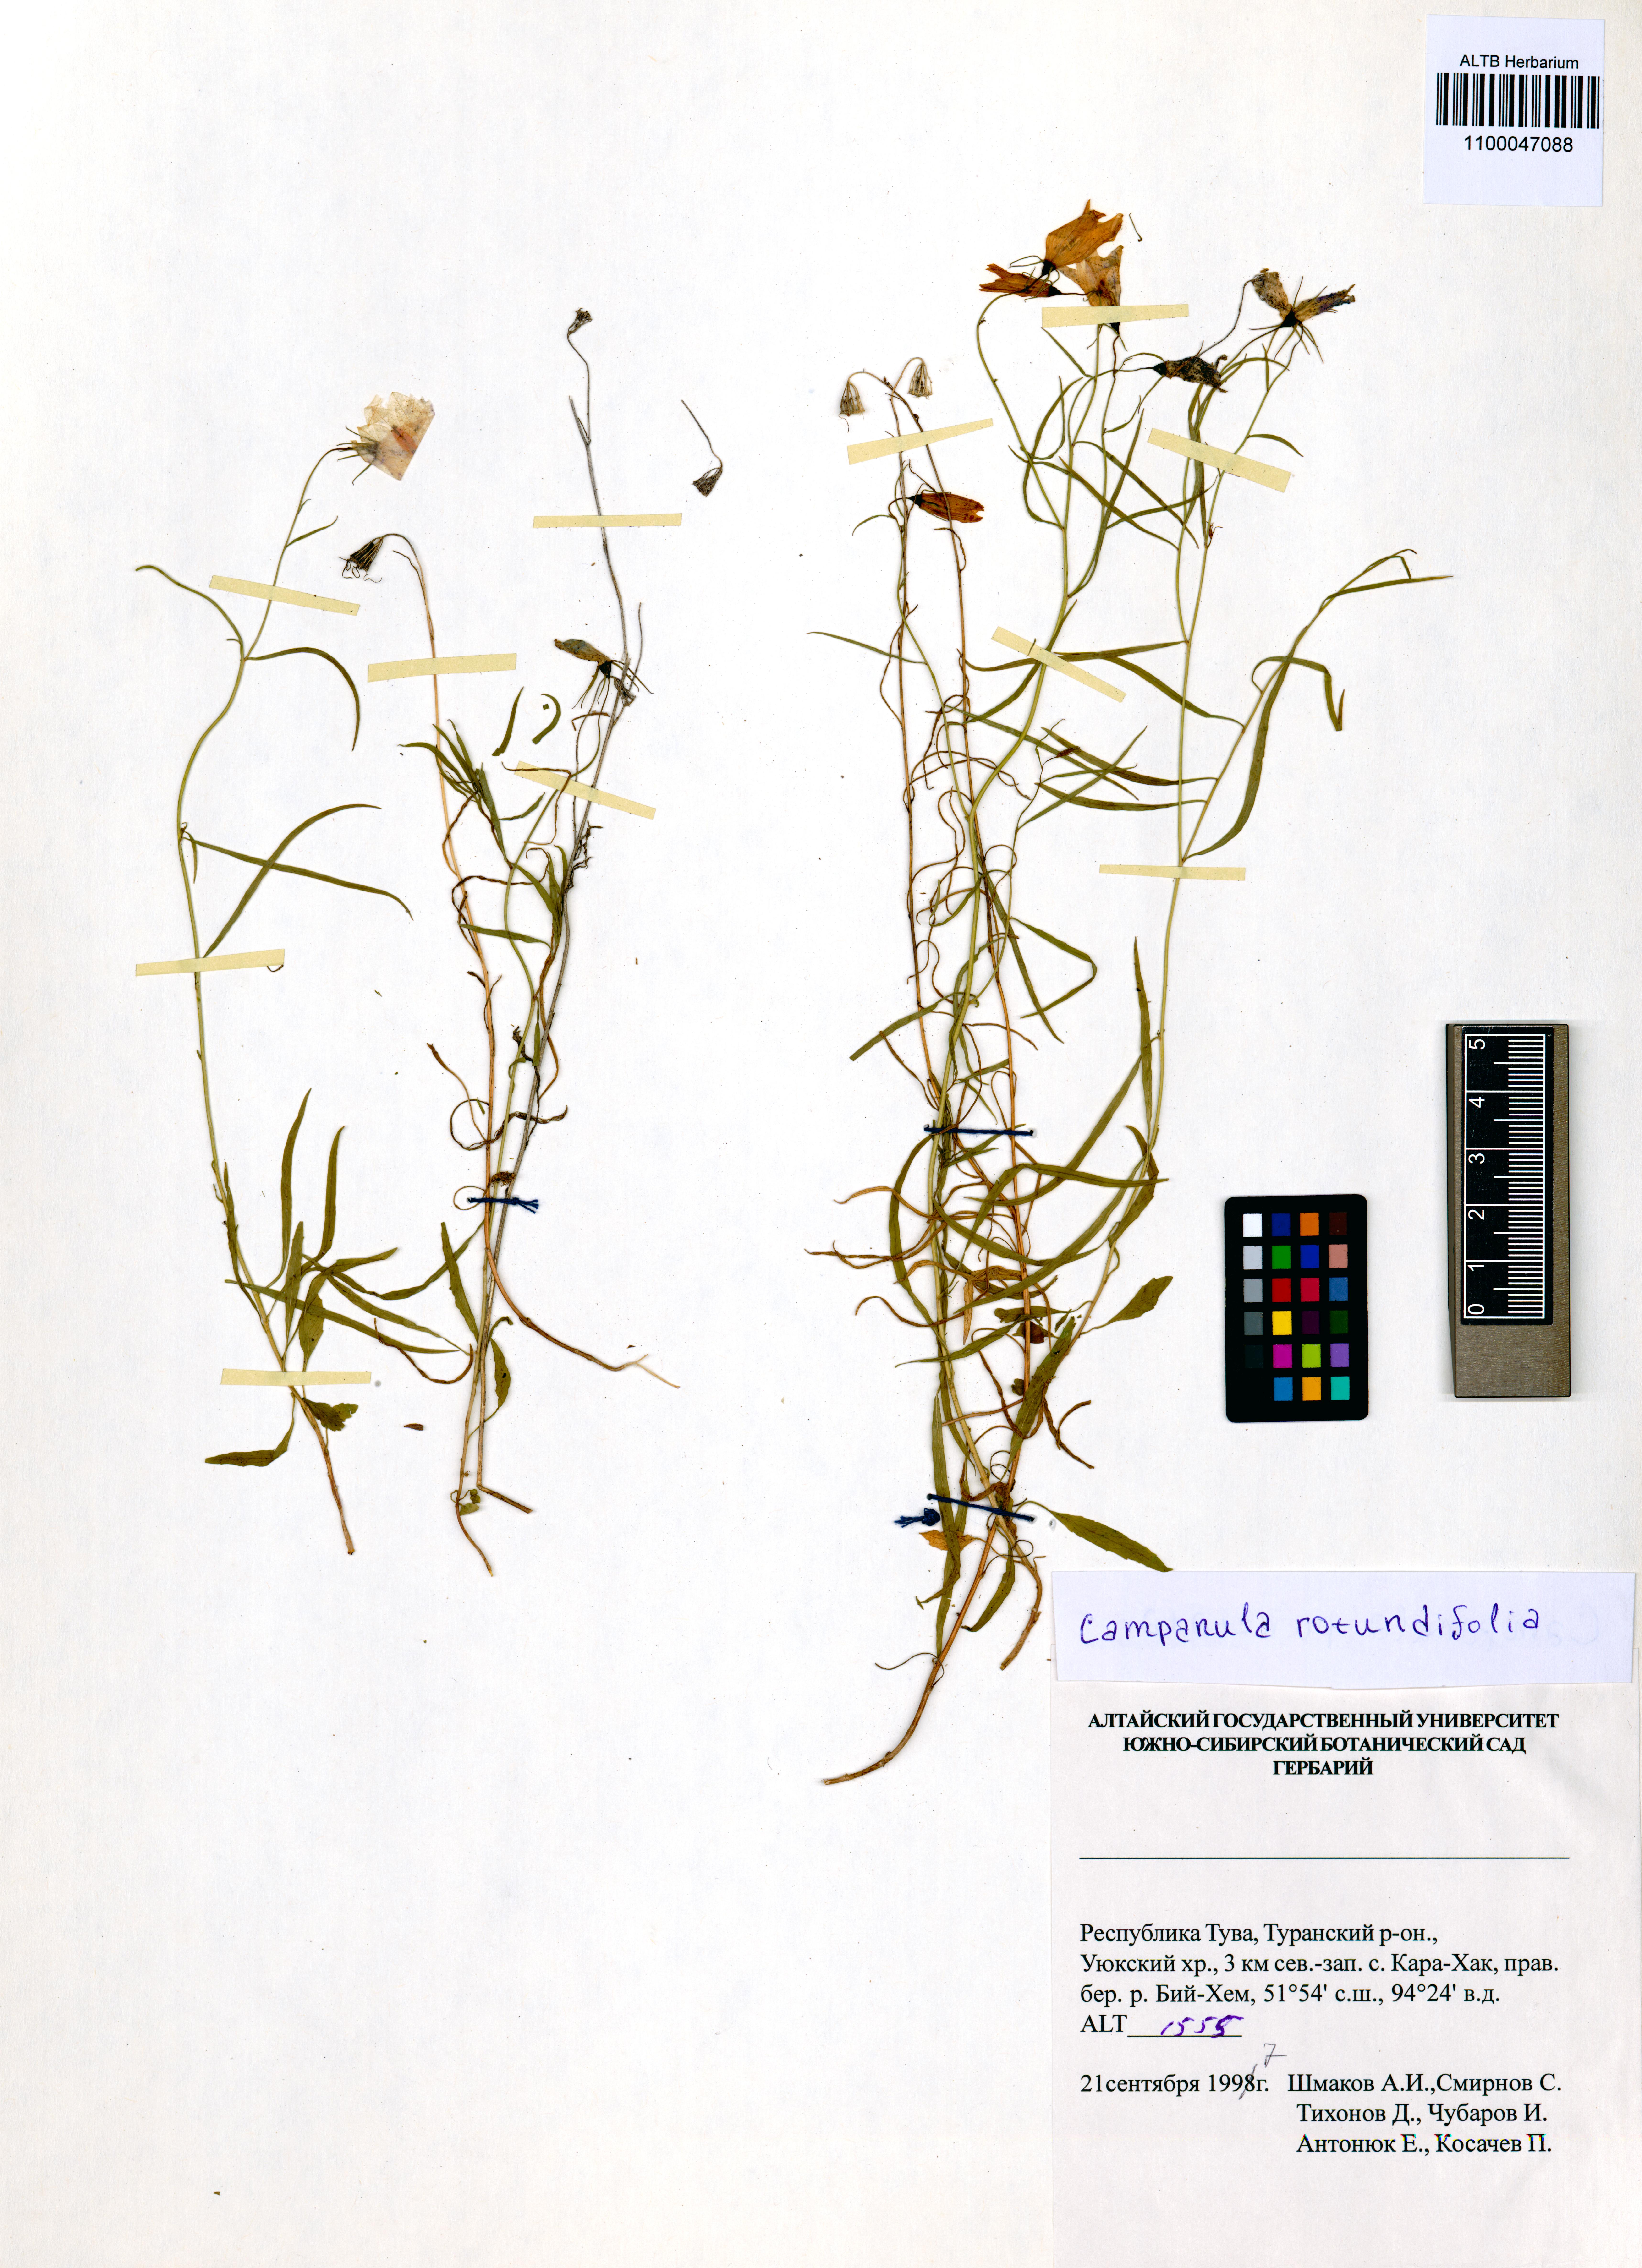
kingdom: Plantae
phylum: Tracheophyta
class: Magnoliopsida
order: Asterales
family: Campanulaceae
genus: Campanula
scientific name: Campanula rotundifolia
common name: Harebell
